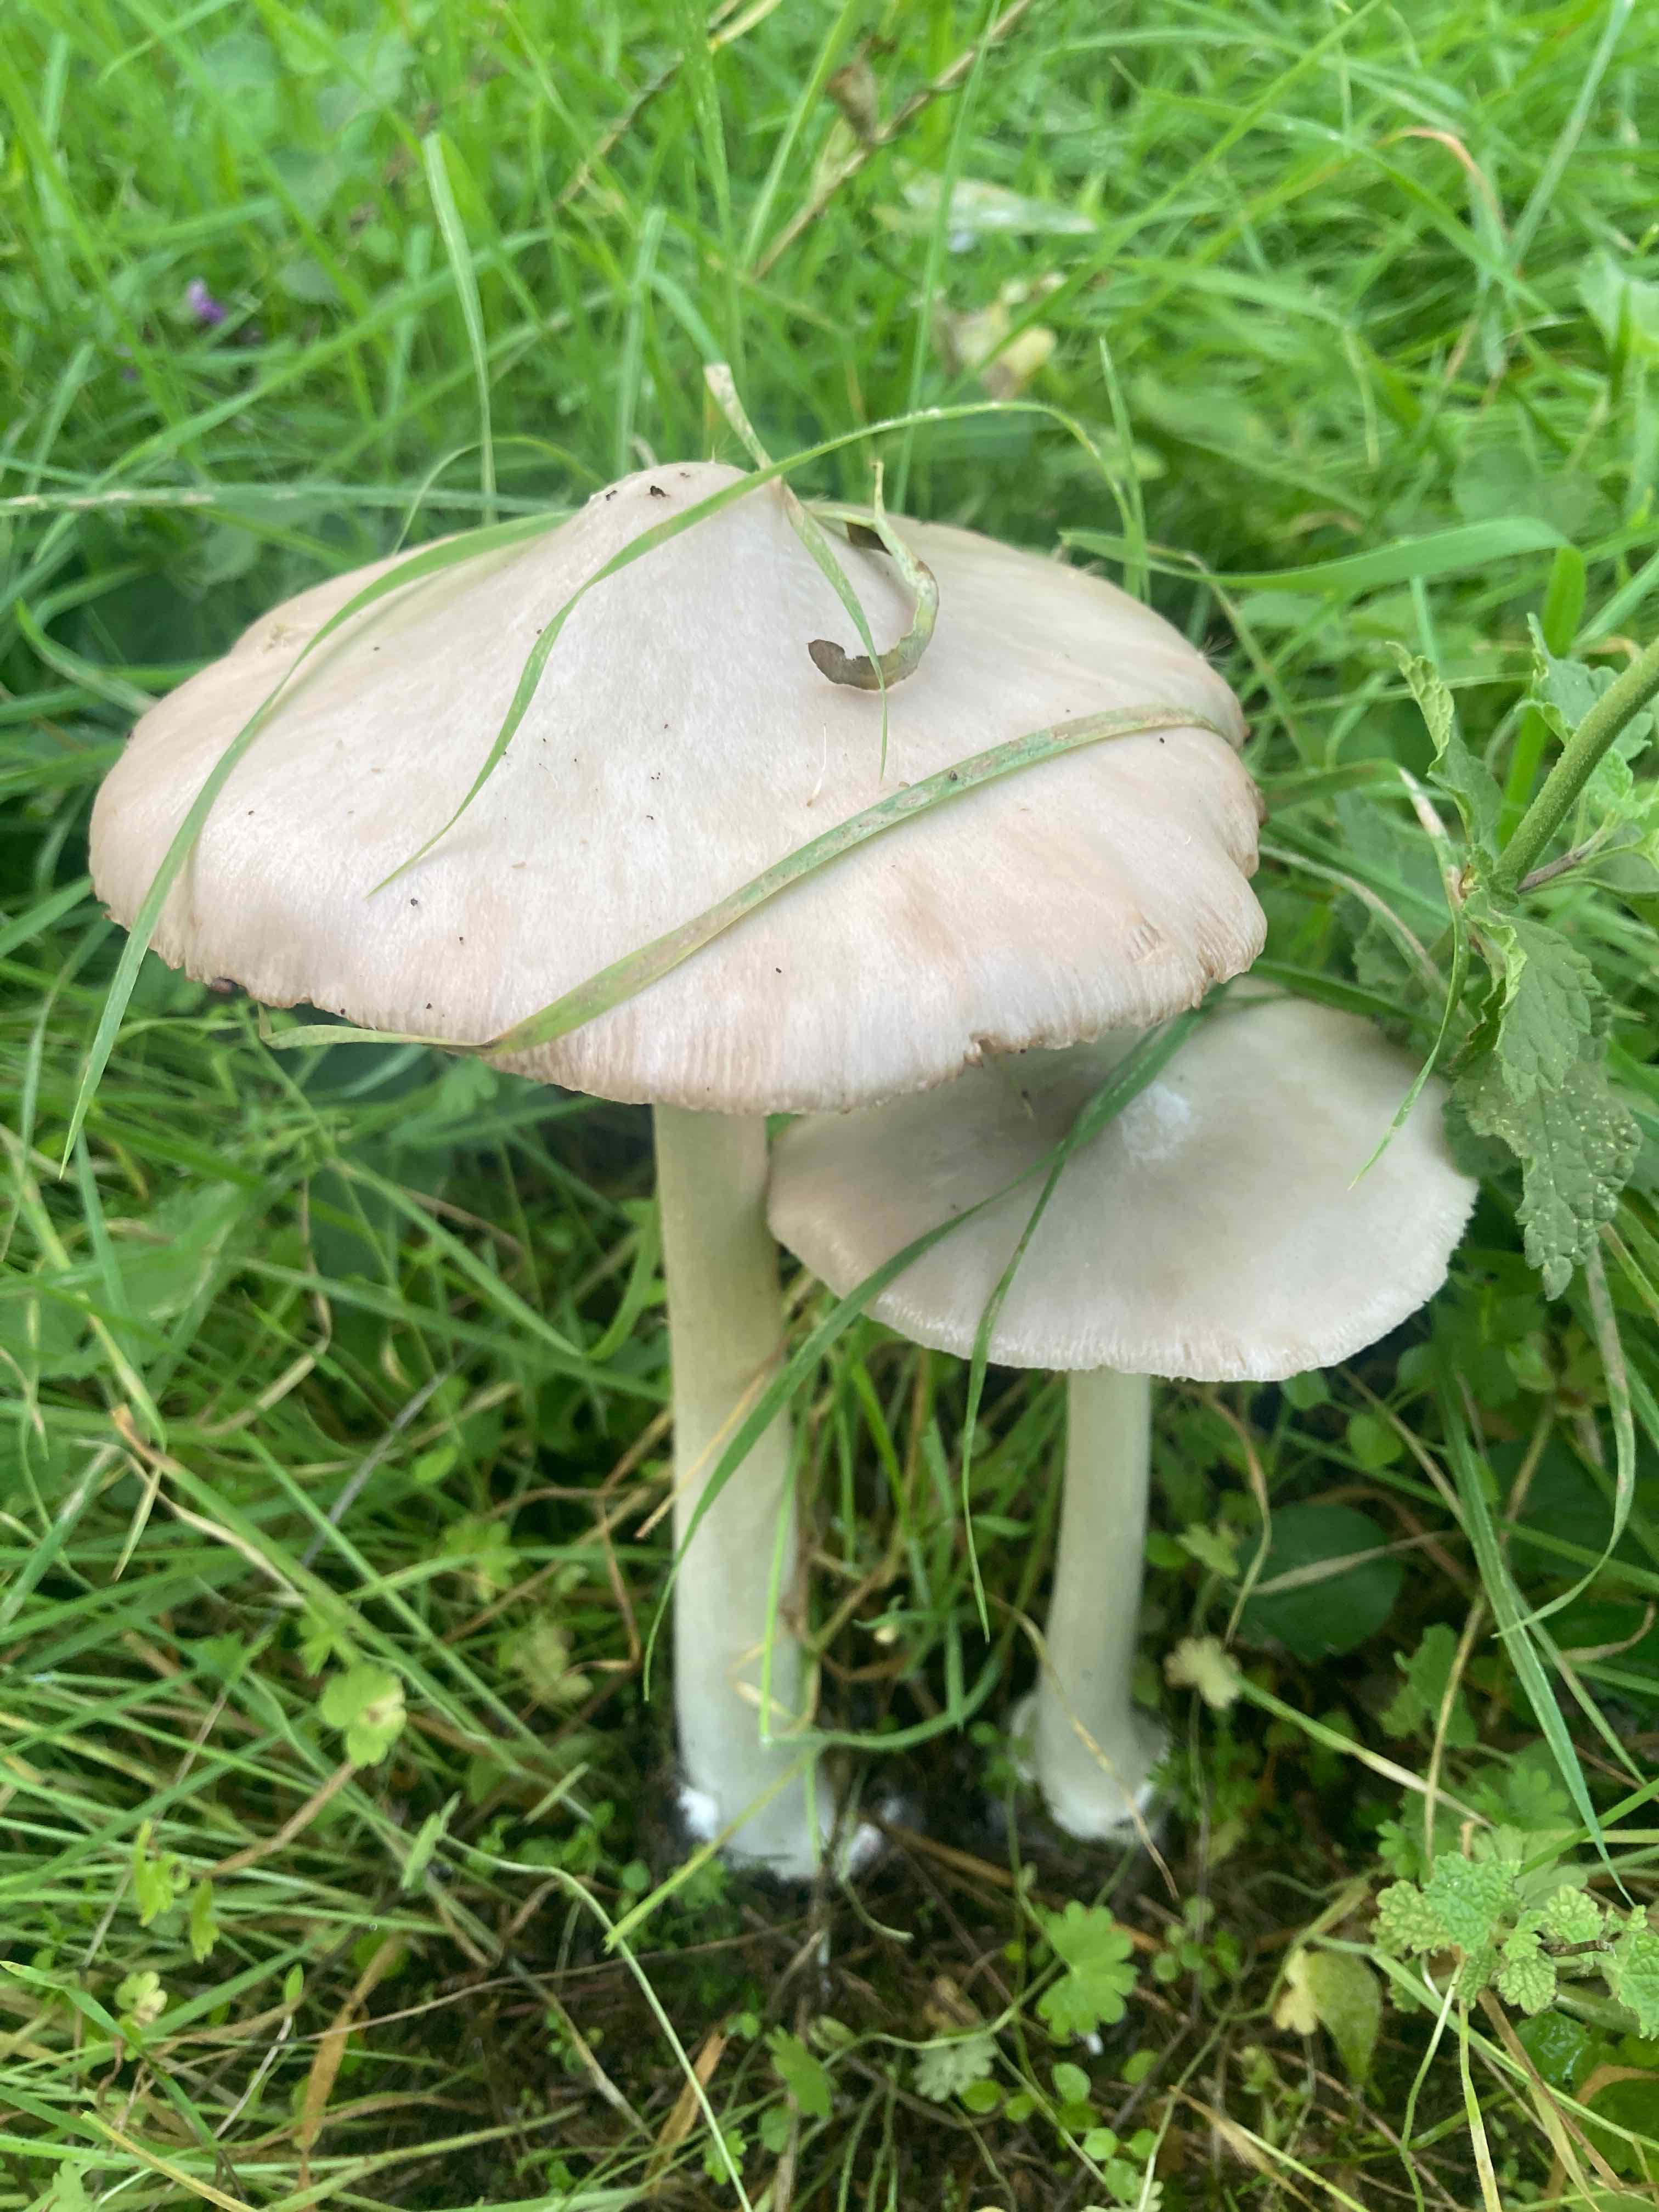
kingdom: Fungi
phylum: Basidiomycota
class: Agaricomycetes
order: Agaricales
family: Pluteaceae
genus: Volvopluteus
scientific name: Volvopluteus gloiocephalus
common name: høj posesvamp
